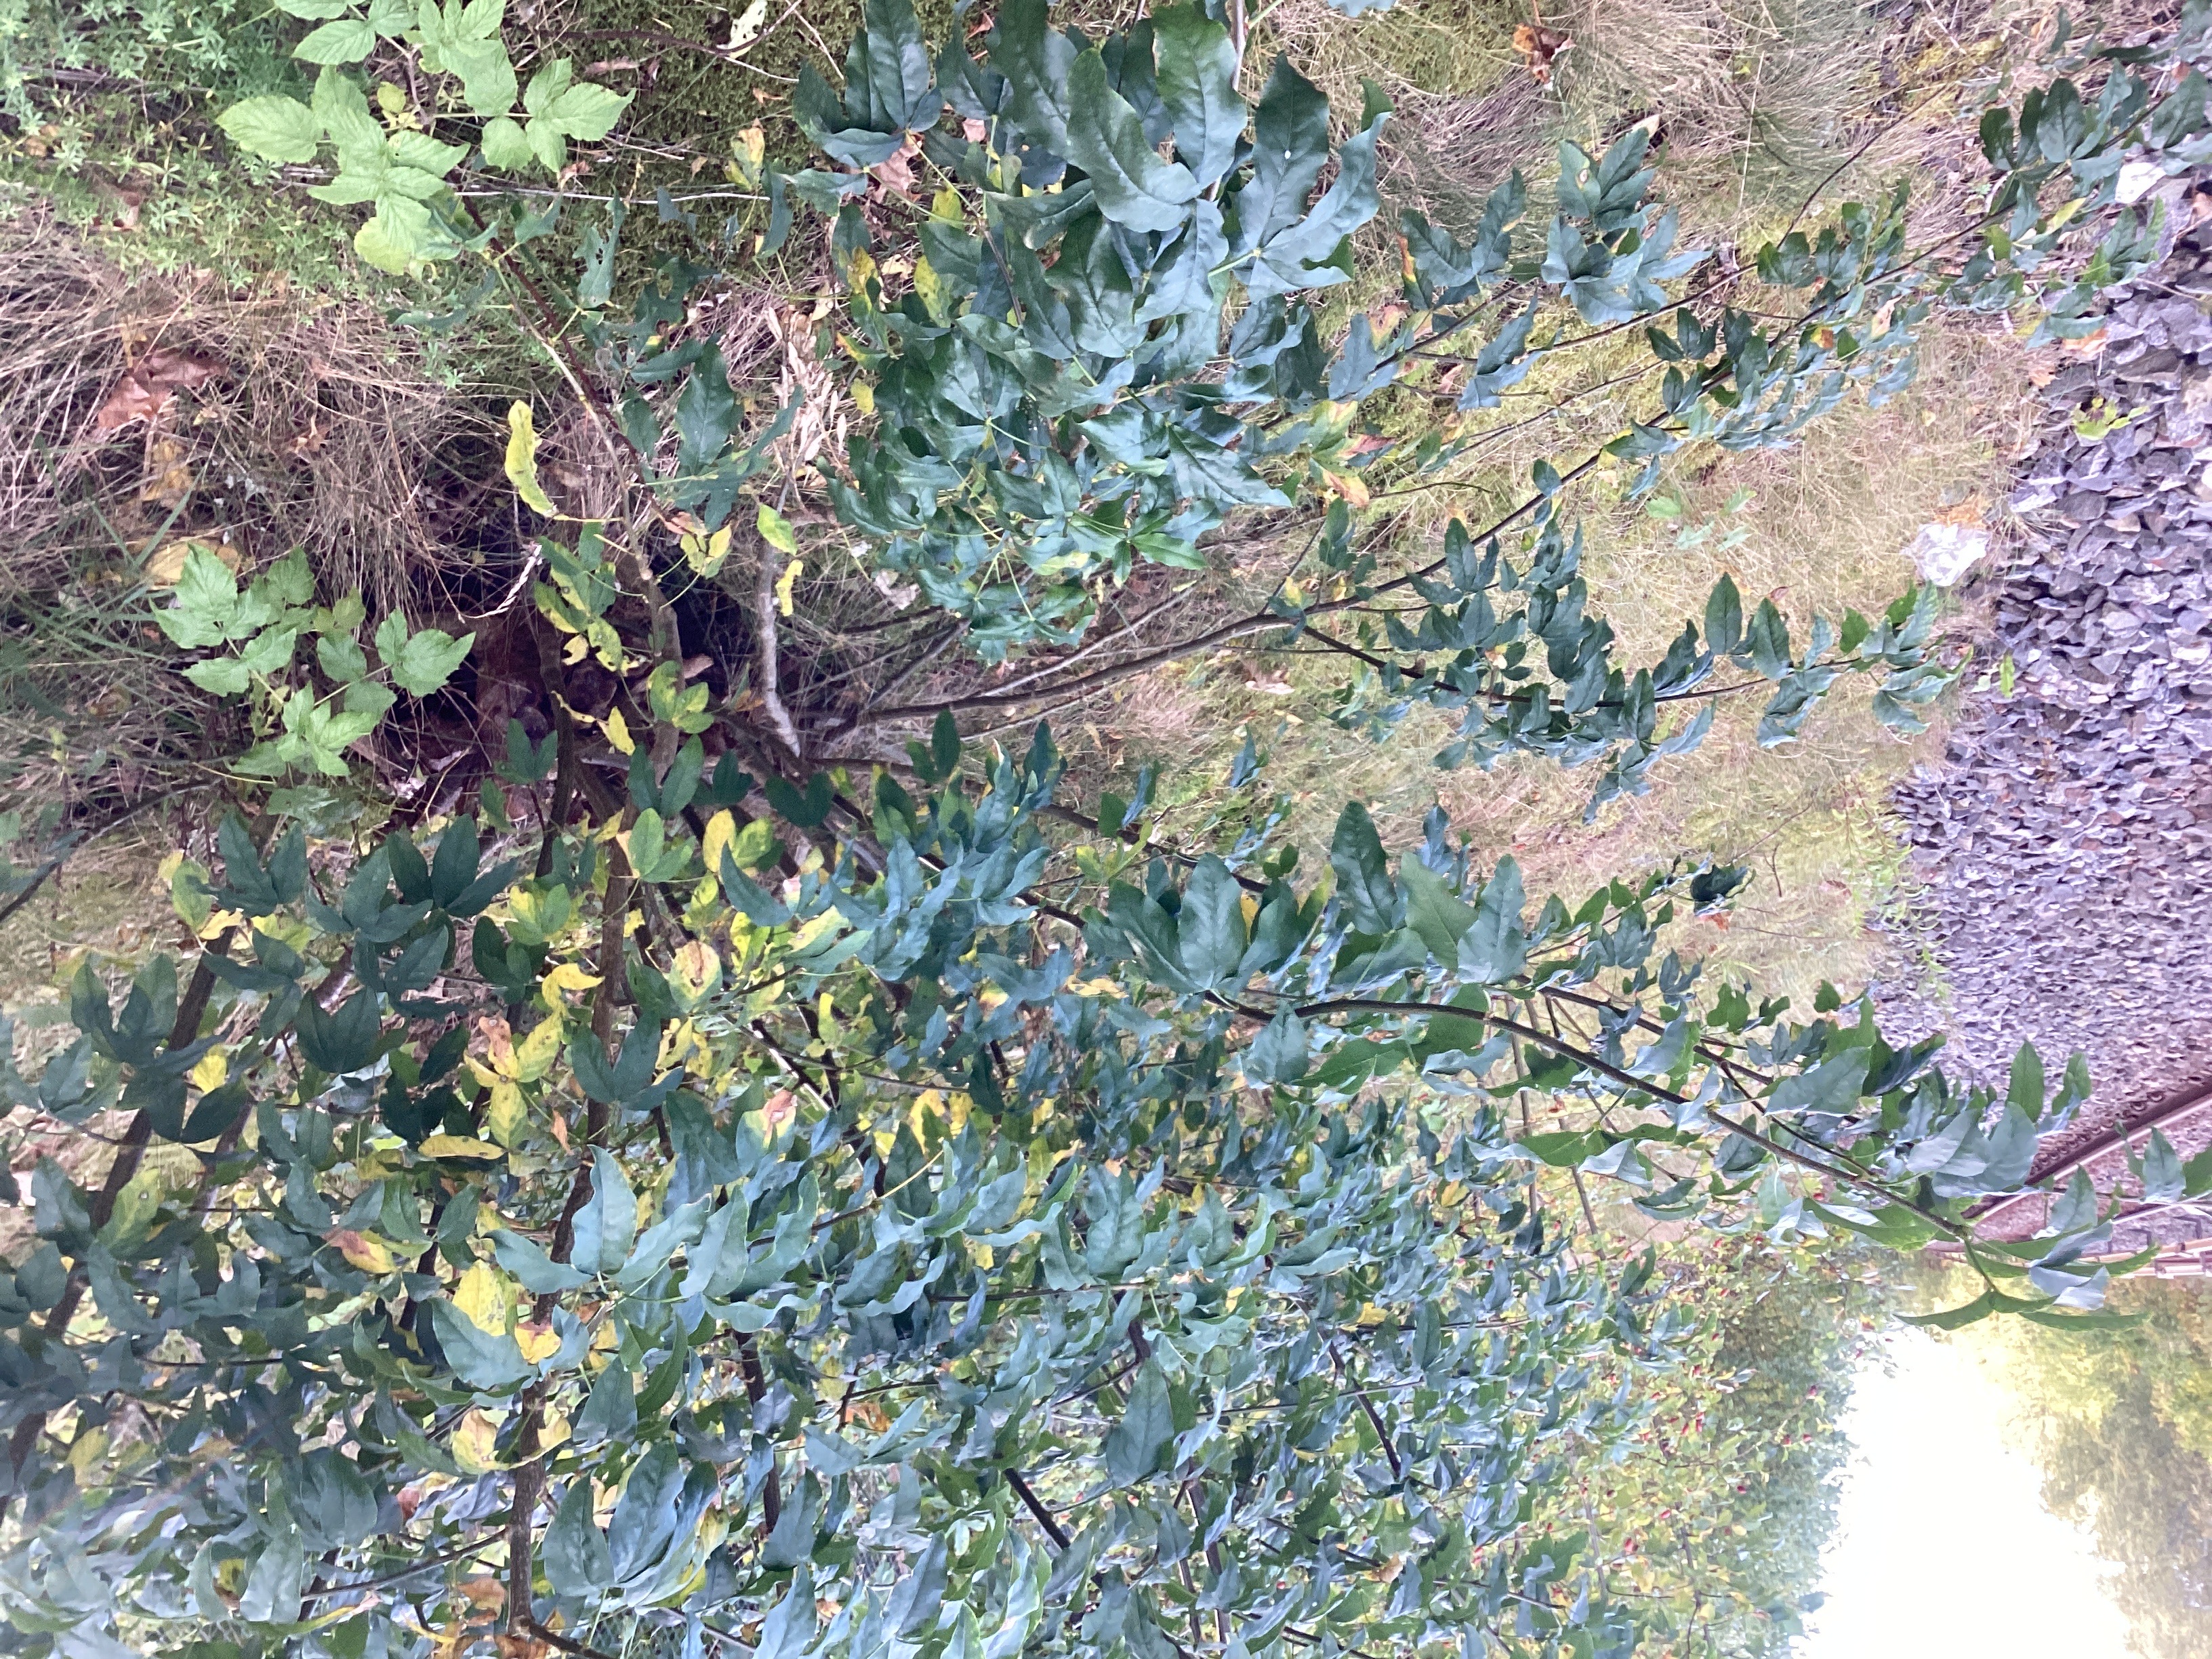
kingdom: Plantae
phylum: Tracheophyta
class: Magnoliopsida
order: Fabales
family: Fabaceae
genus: Laburnum
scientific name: Laburnum alpinum
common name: alpegullregn
